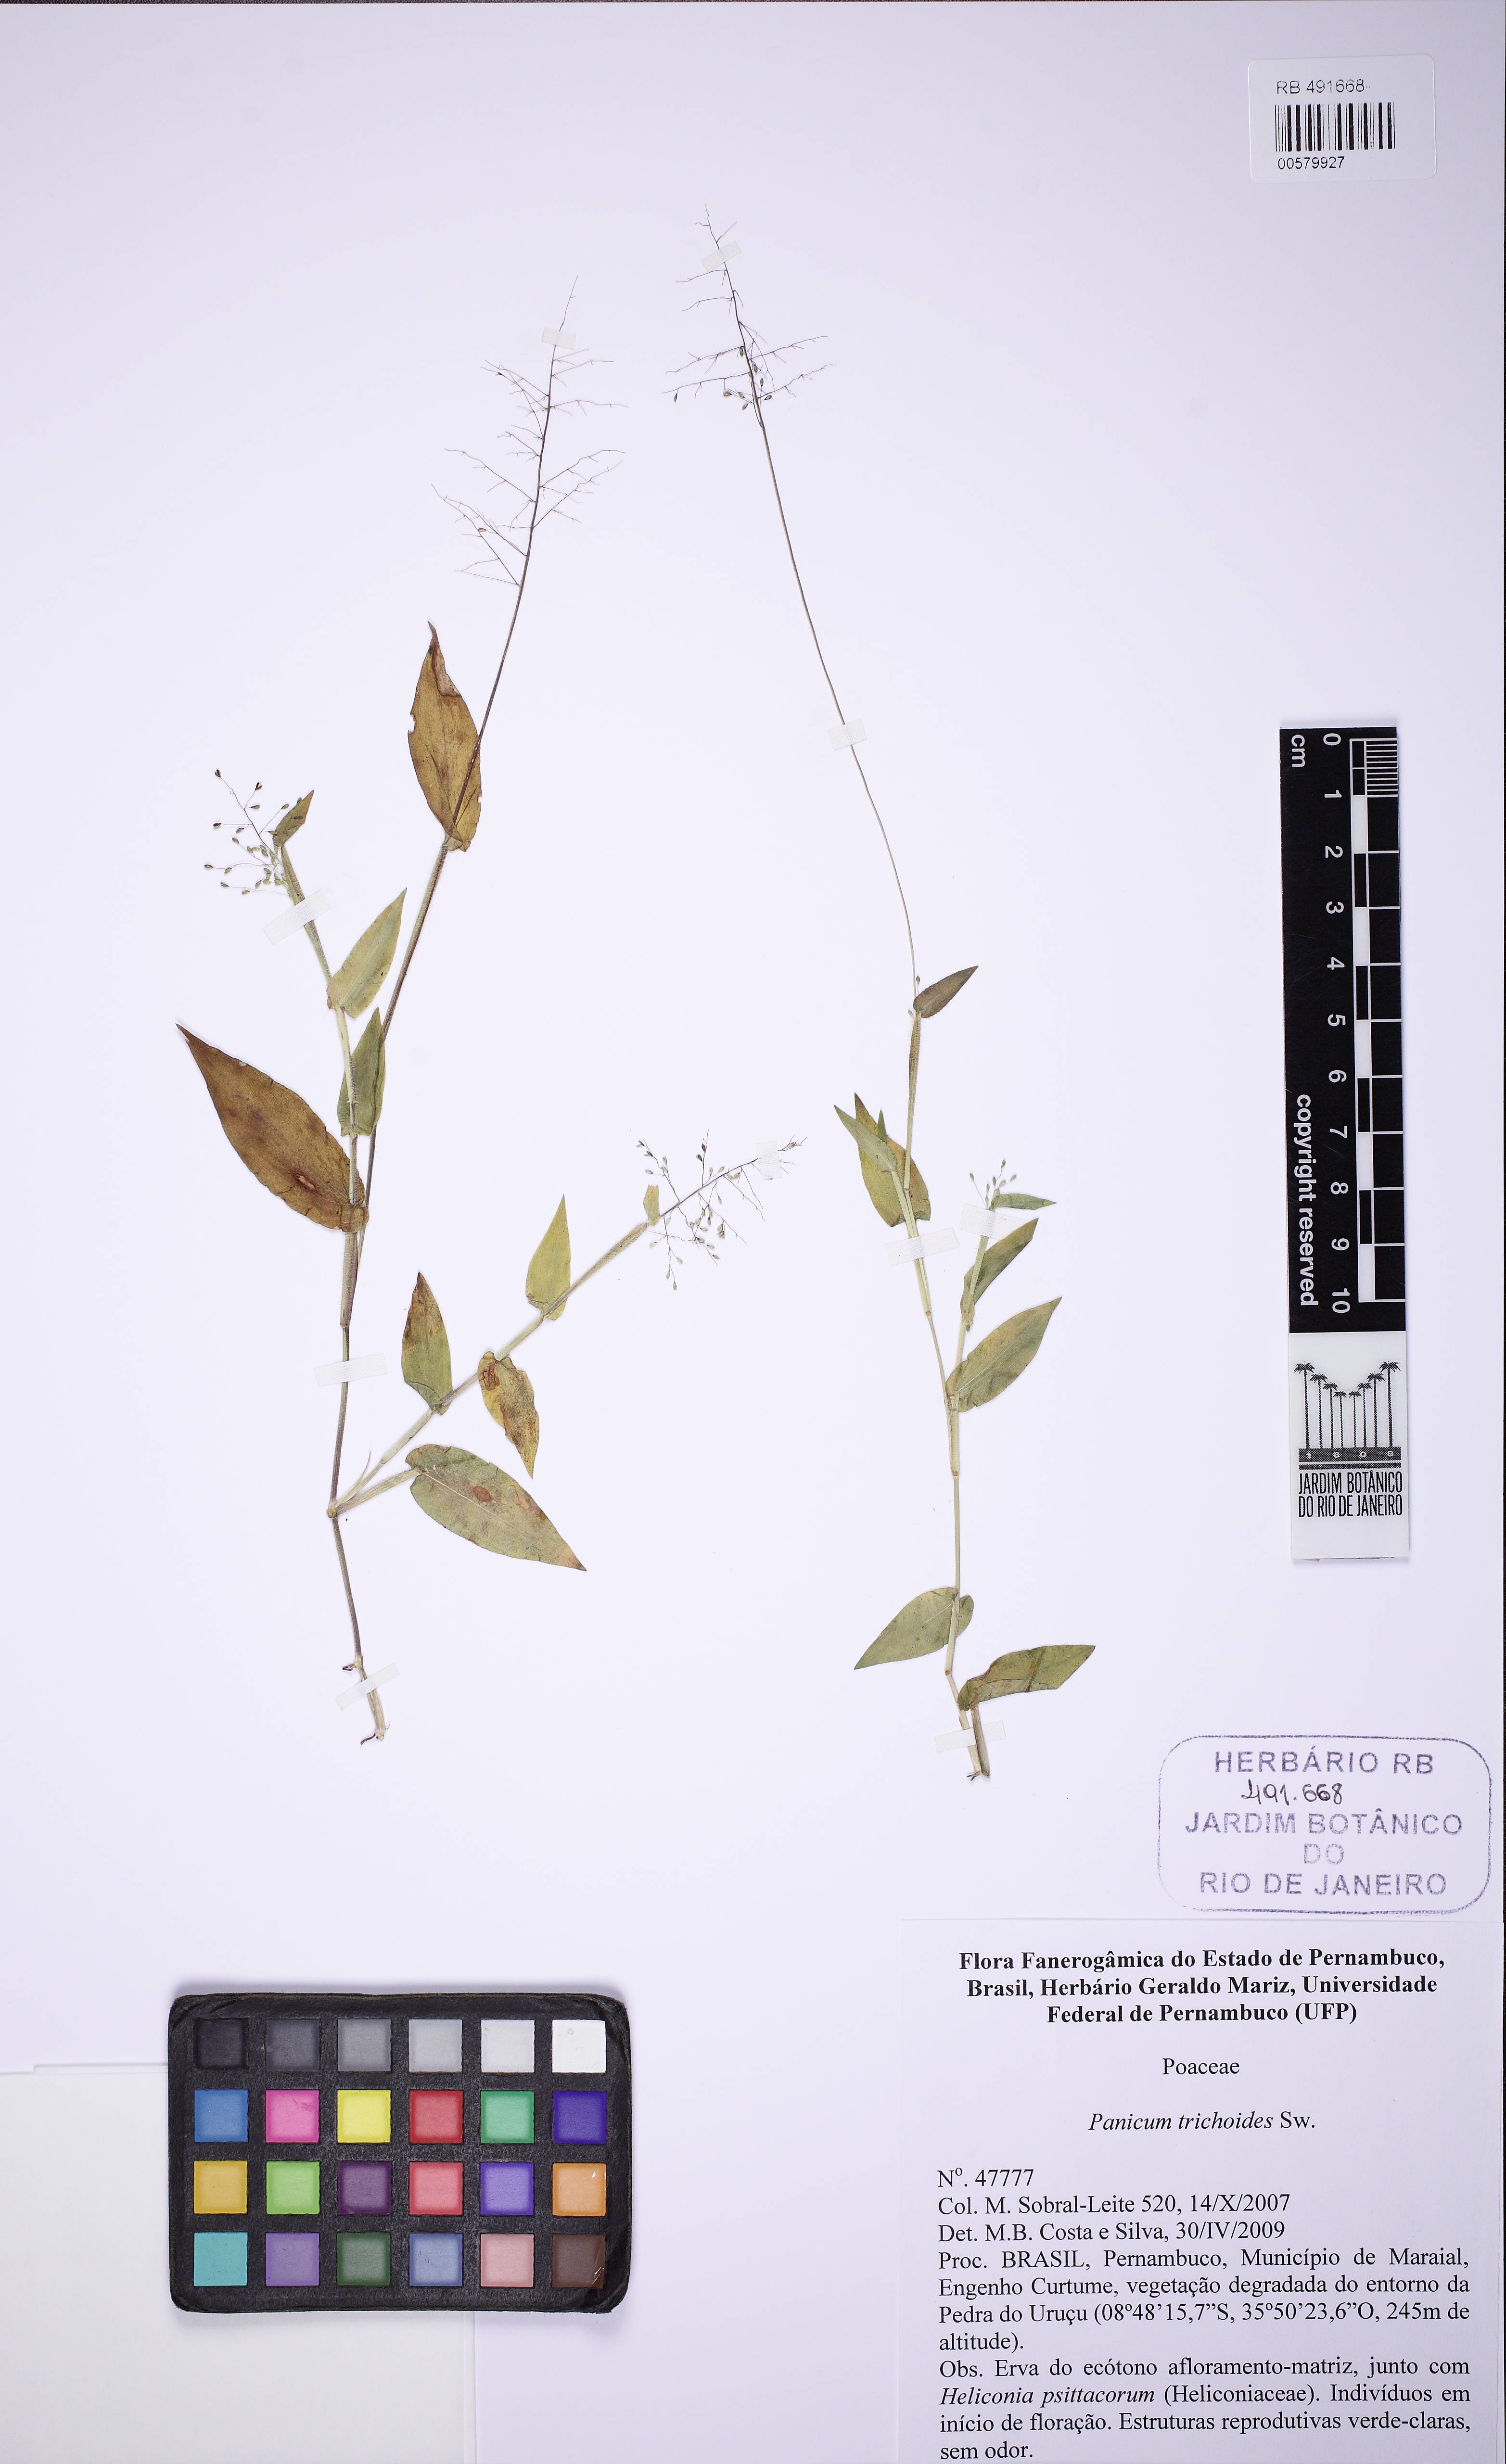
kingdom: Plantae
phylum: Tracheophyta
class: Liliopsida
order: Poales
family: Poaceae
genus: Dichanthelium
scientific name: Dichanthelium sciurotis
